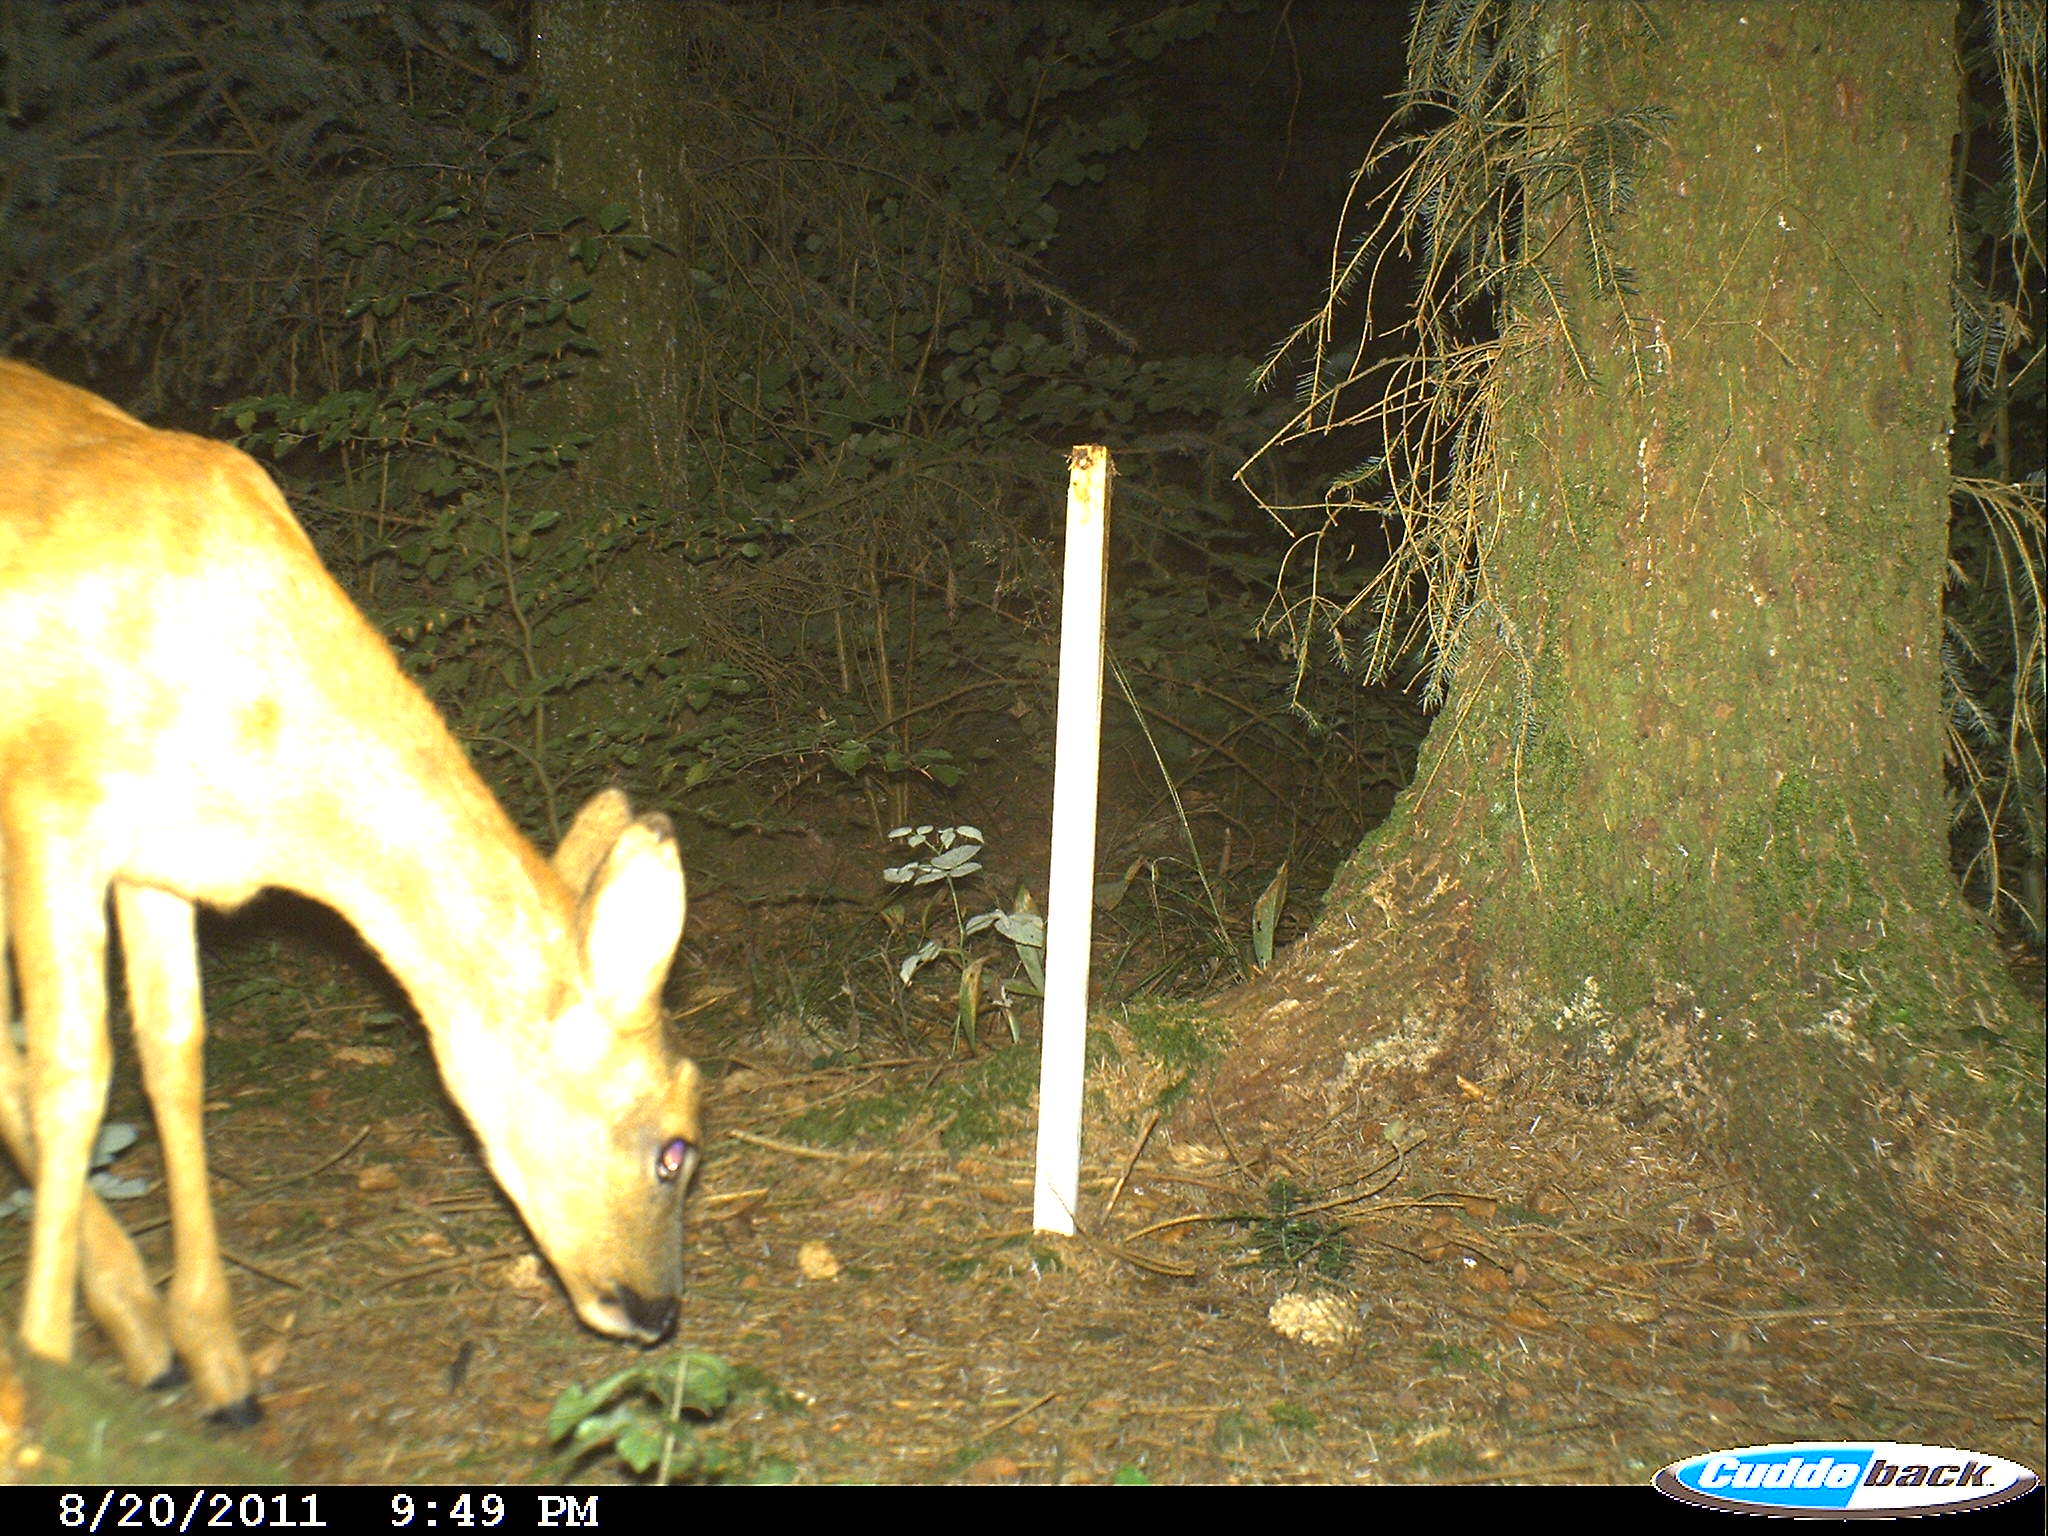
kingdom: Animalia
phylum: Chordata
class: Mammalia
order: Artiodactyla
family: Cervidae
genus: Capreolus
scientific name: Capreolus capreolus
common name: Western roe deer
